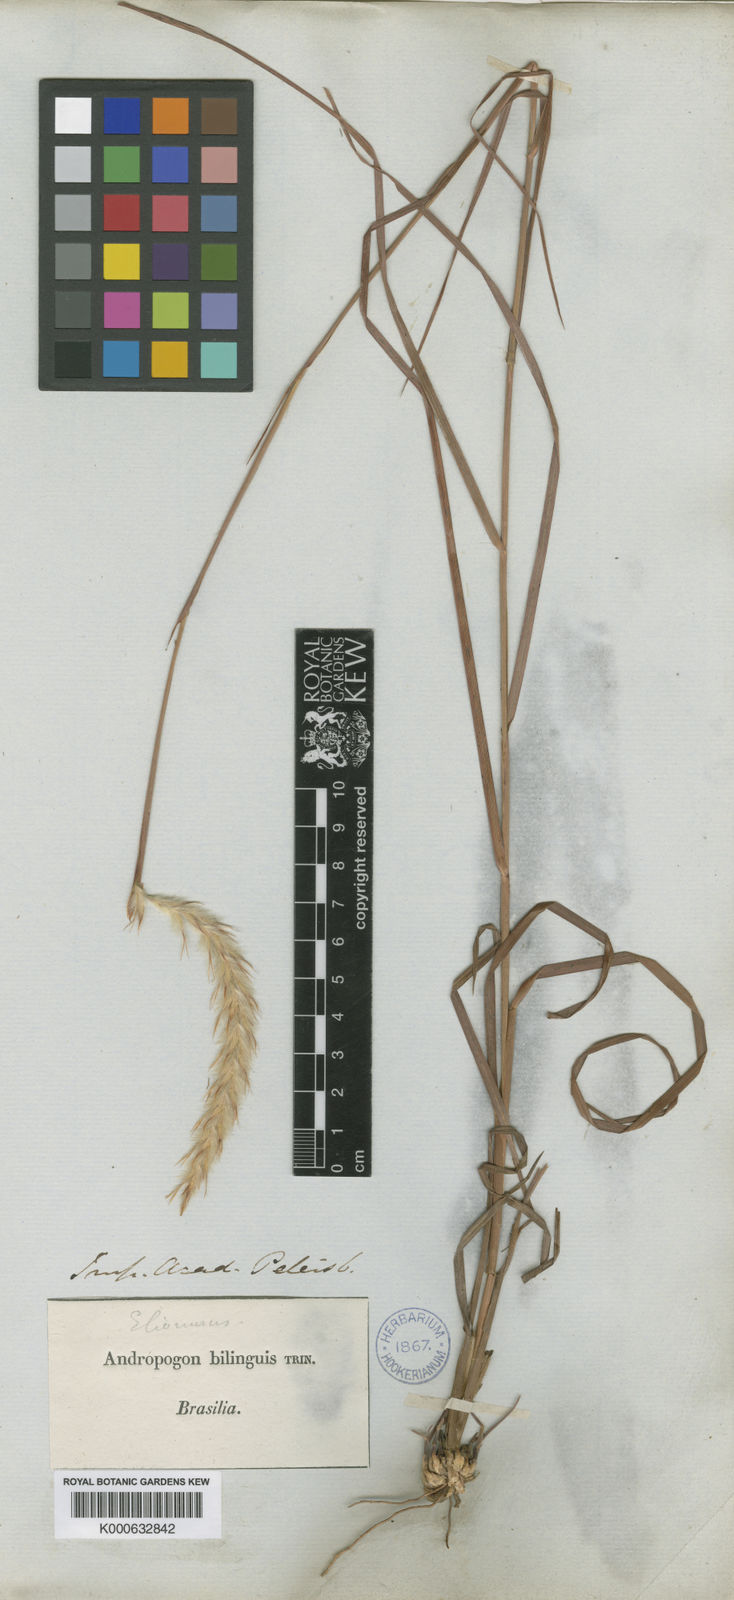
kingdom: Plantae
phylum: Tracheophyta
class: Liliopsida
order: Poales
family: Poaceae
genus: Elionurus
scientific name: Elionurus bilinguis
